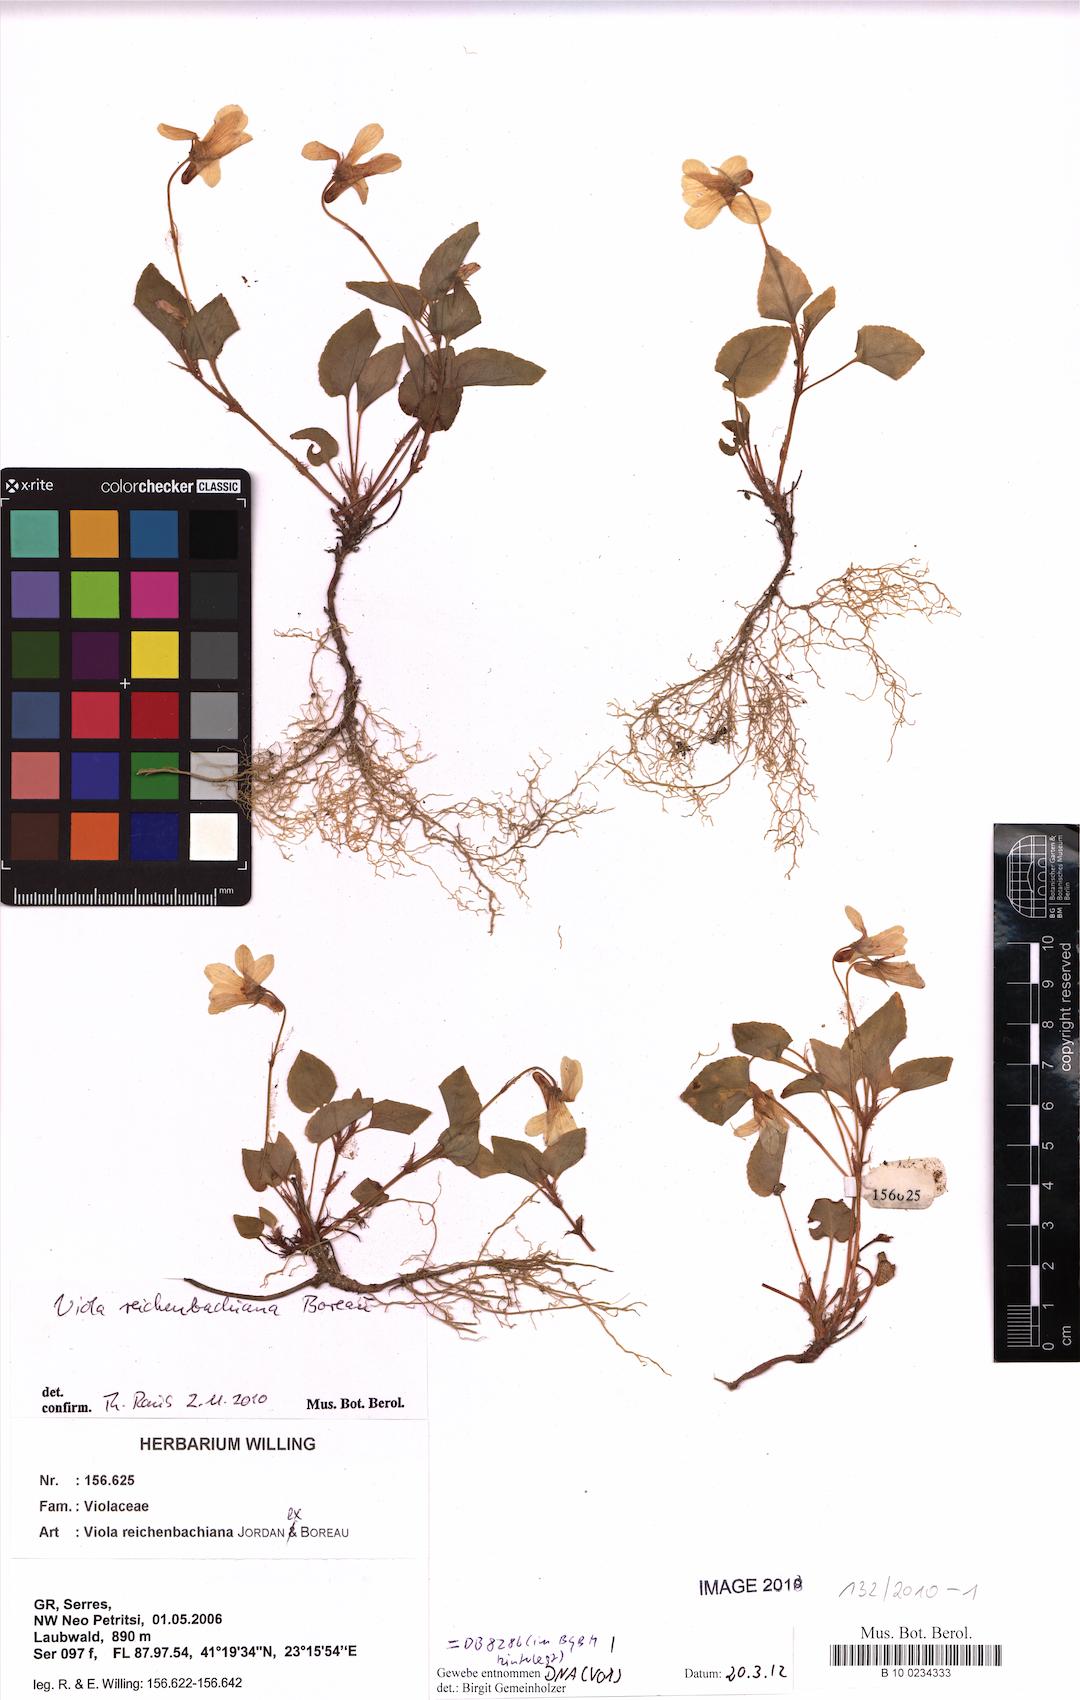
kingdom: Plantae
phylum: Tracheophyta
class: Magnoliopsida
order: Malpighiales
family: Violaceae
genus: Viola
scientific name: Viola reichenbachiana
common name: Early dog-violet
